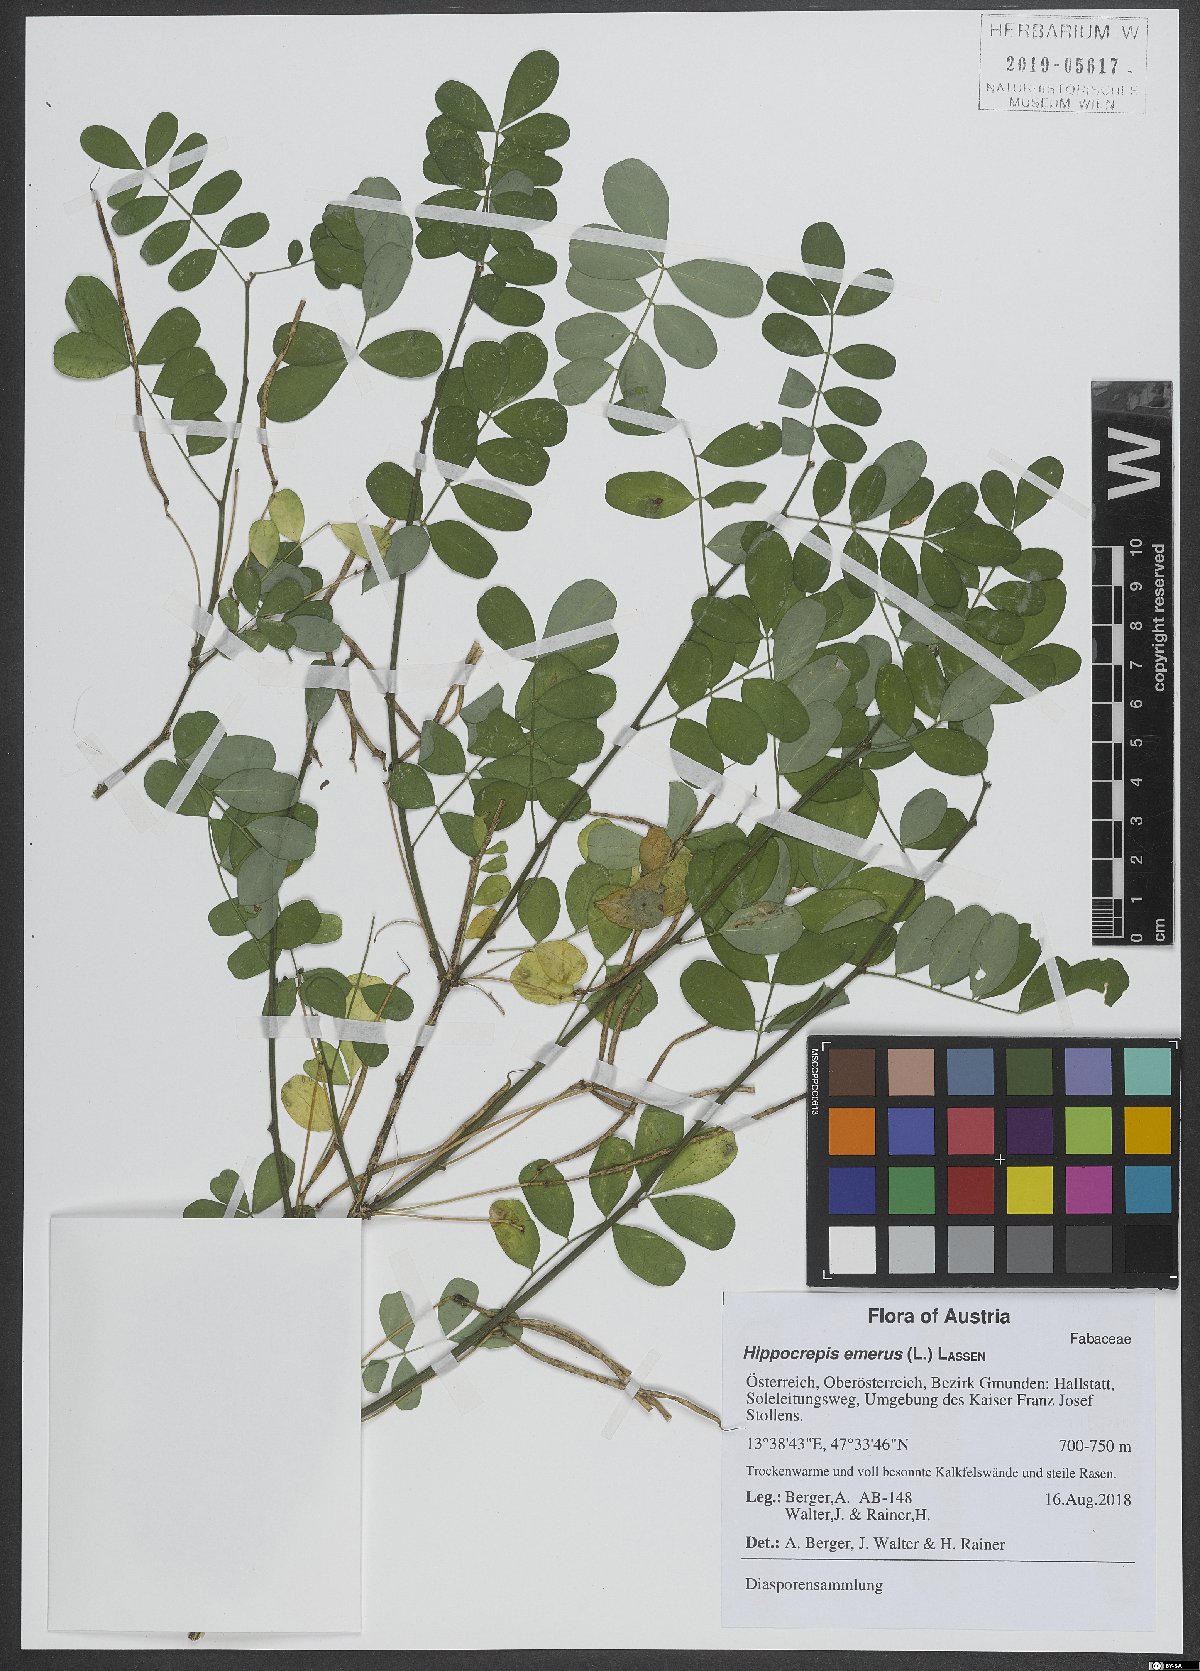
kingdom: Plantae
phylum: Tracheophyta
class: Magnoliopsida
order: Fabales
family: Fabaceae
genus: Hippocrepis
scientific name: Hippocrepis emerus
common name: Scorpion senna
